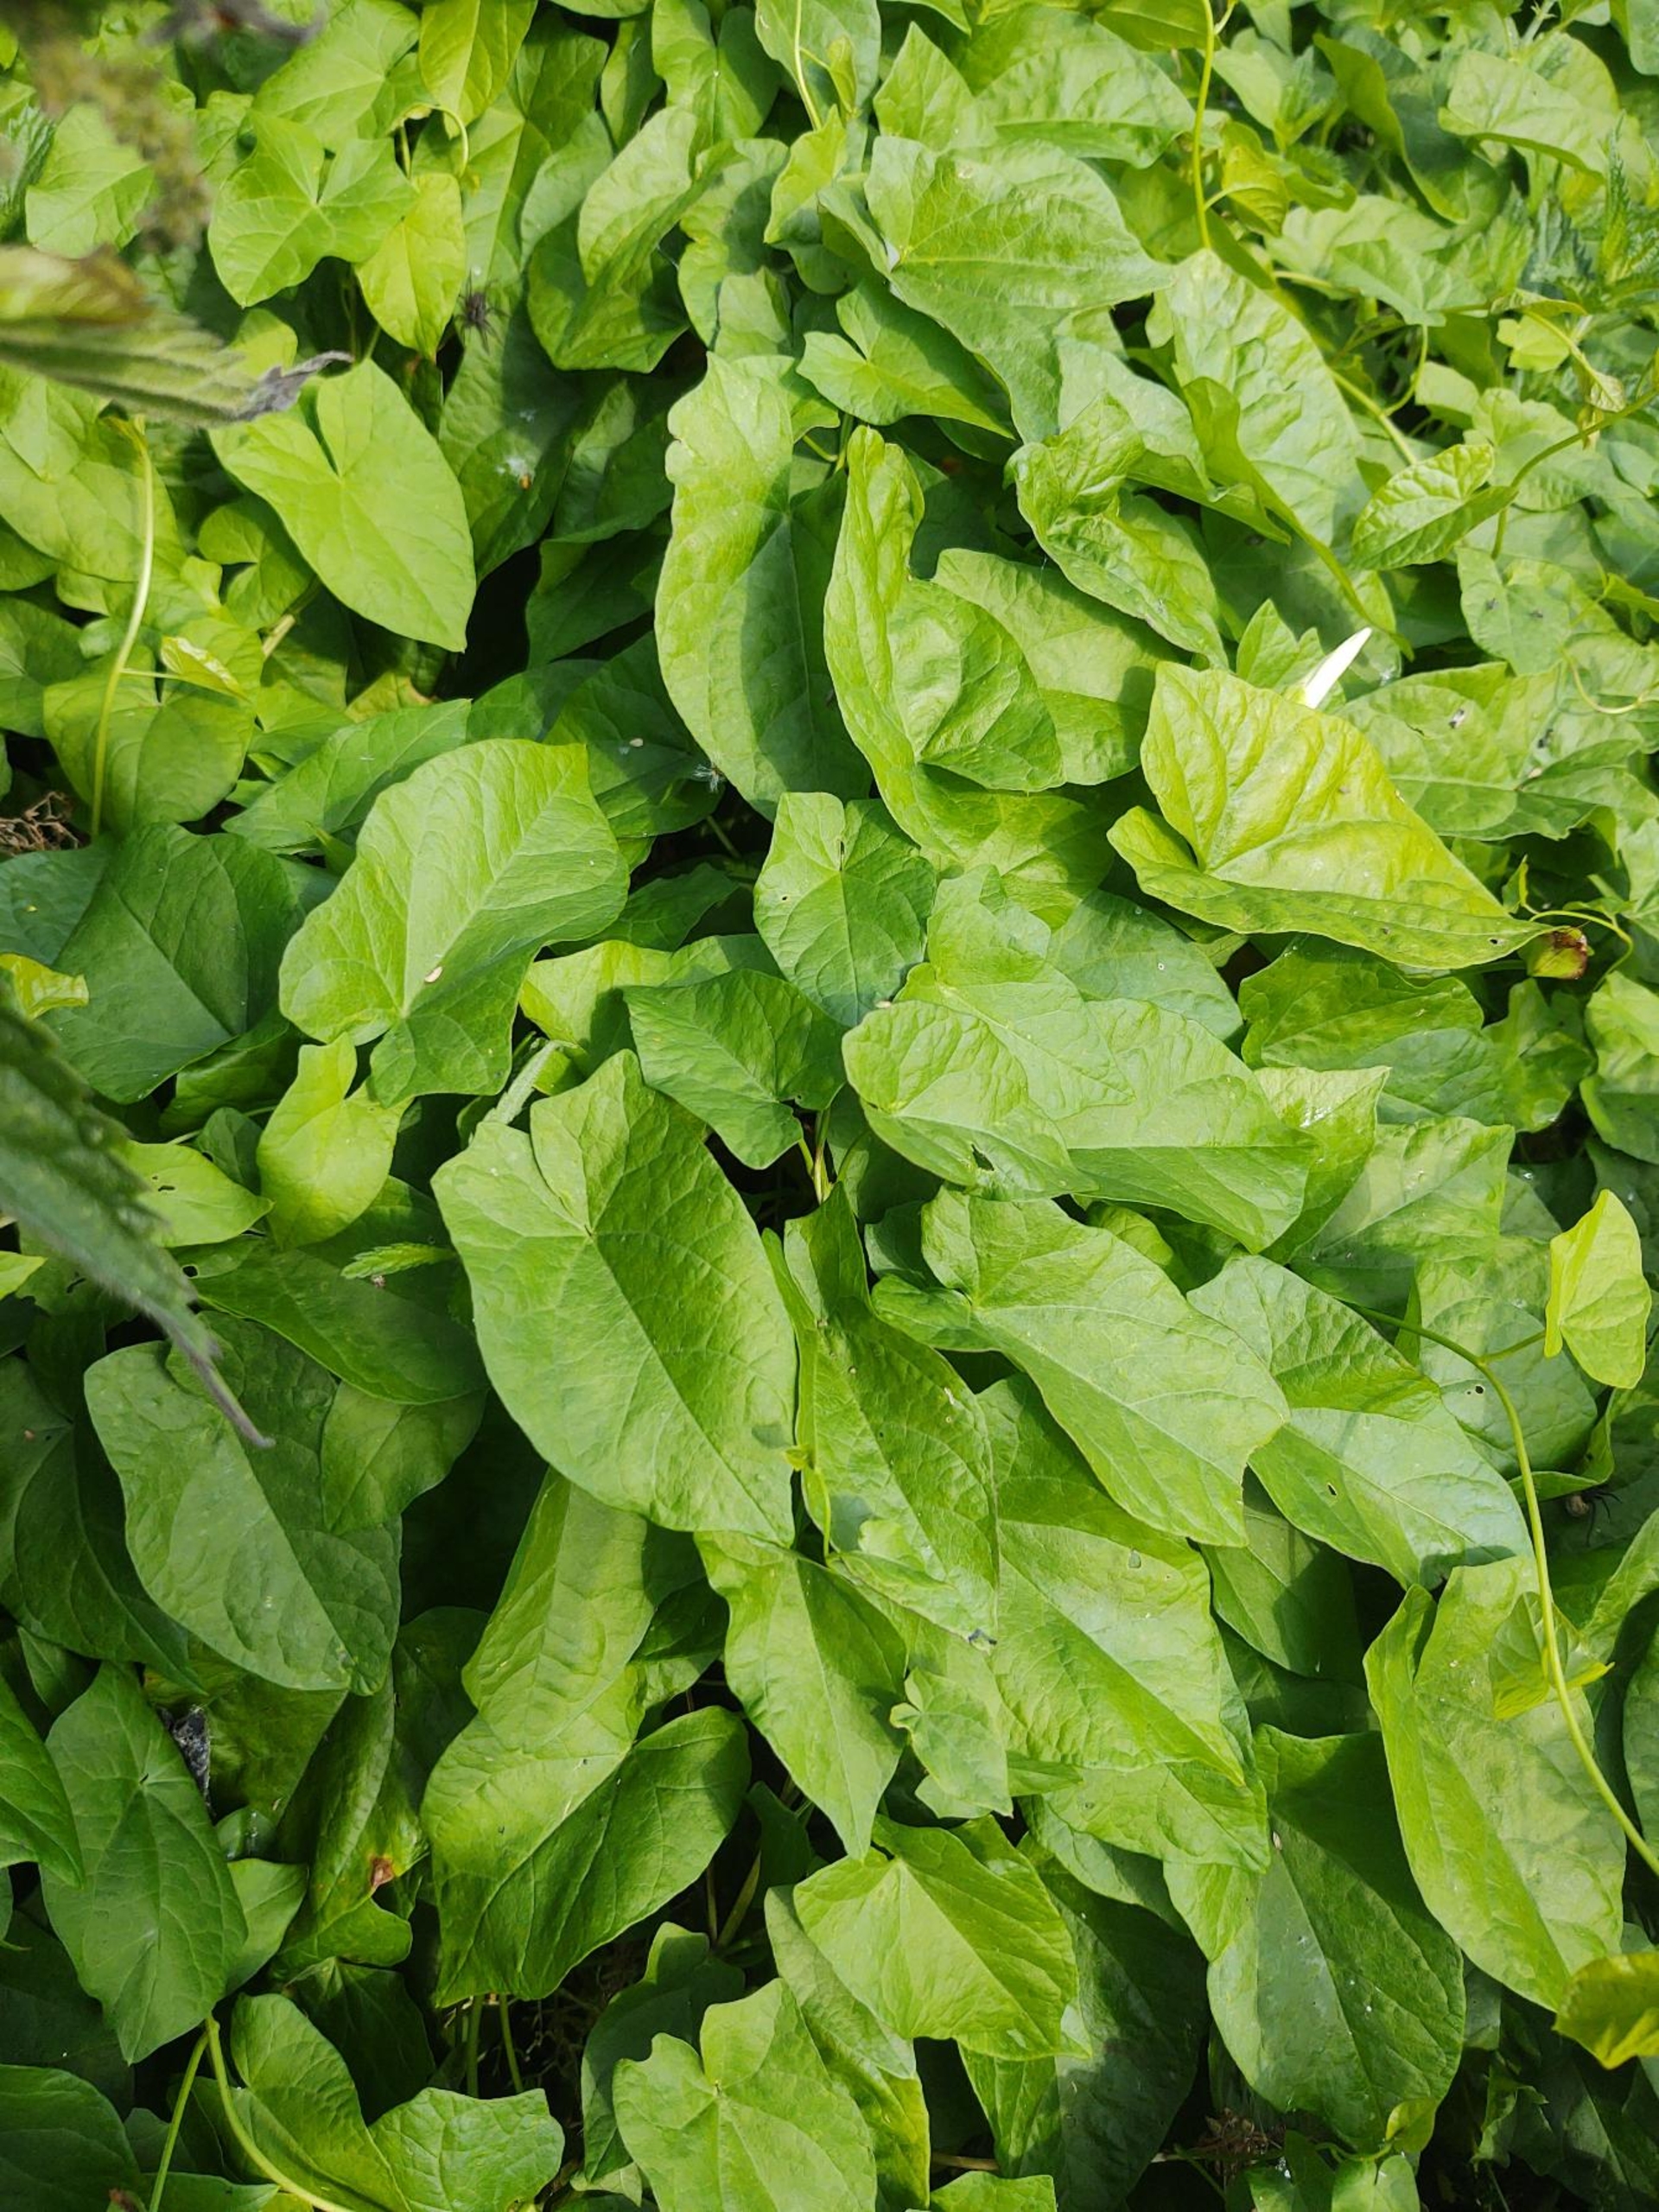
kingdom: Plantae
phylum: Tracheophyta
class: Magnoliopsida
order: Solanales
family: Convolvulaceae
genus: Calystegia
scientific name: Calystegia sepium
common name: Gærde-snerle
